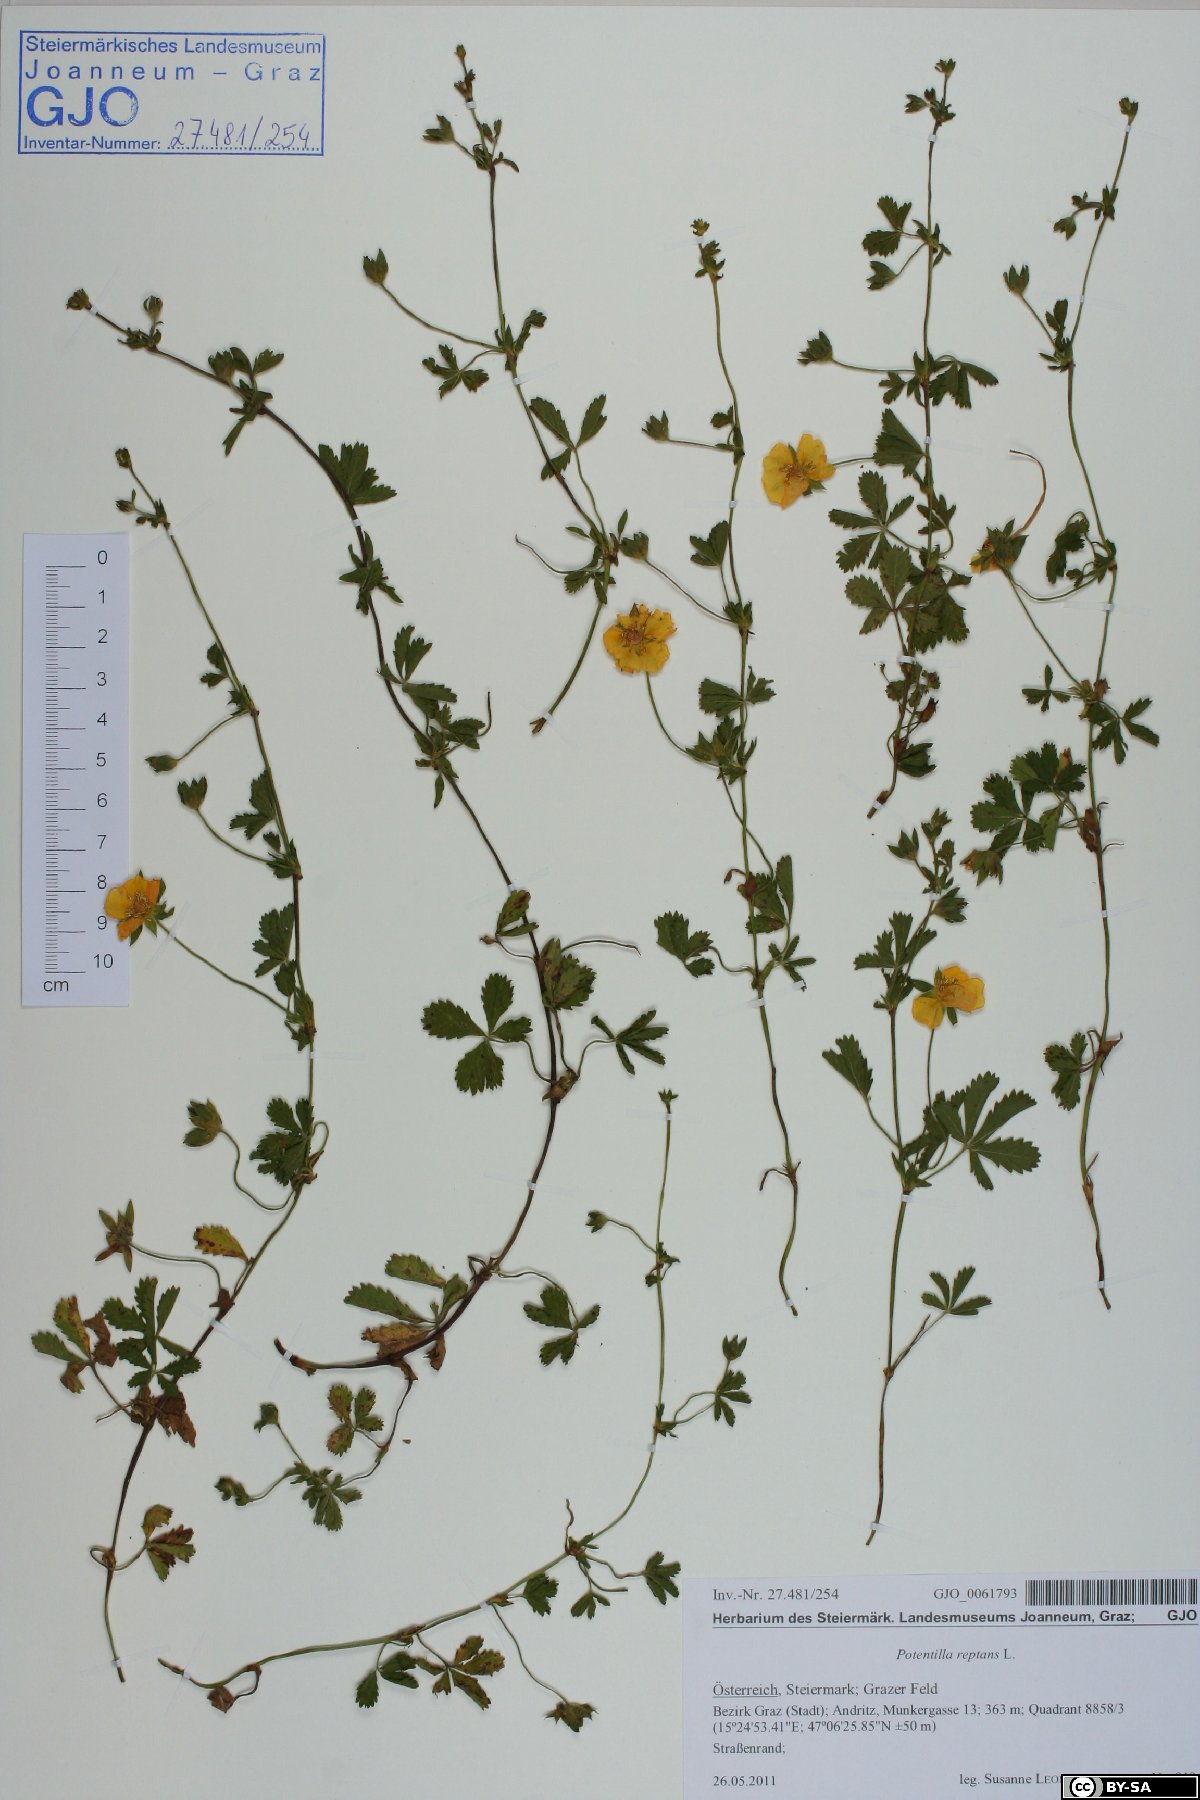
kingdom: Plantae
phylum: Tracheophyta
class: Magnoliopsida
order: Rosales
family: Rosaceae
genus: Potentilla
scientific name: Potentilla reptans
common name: Creeping cinquefoil
